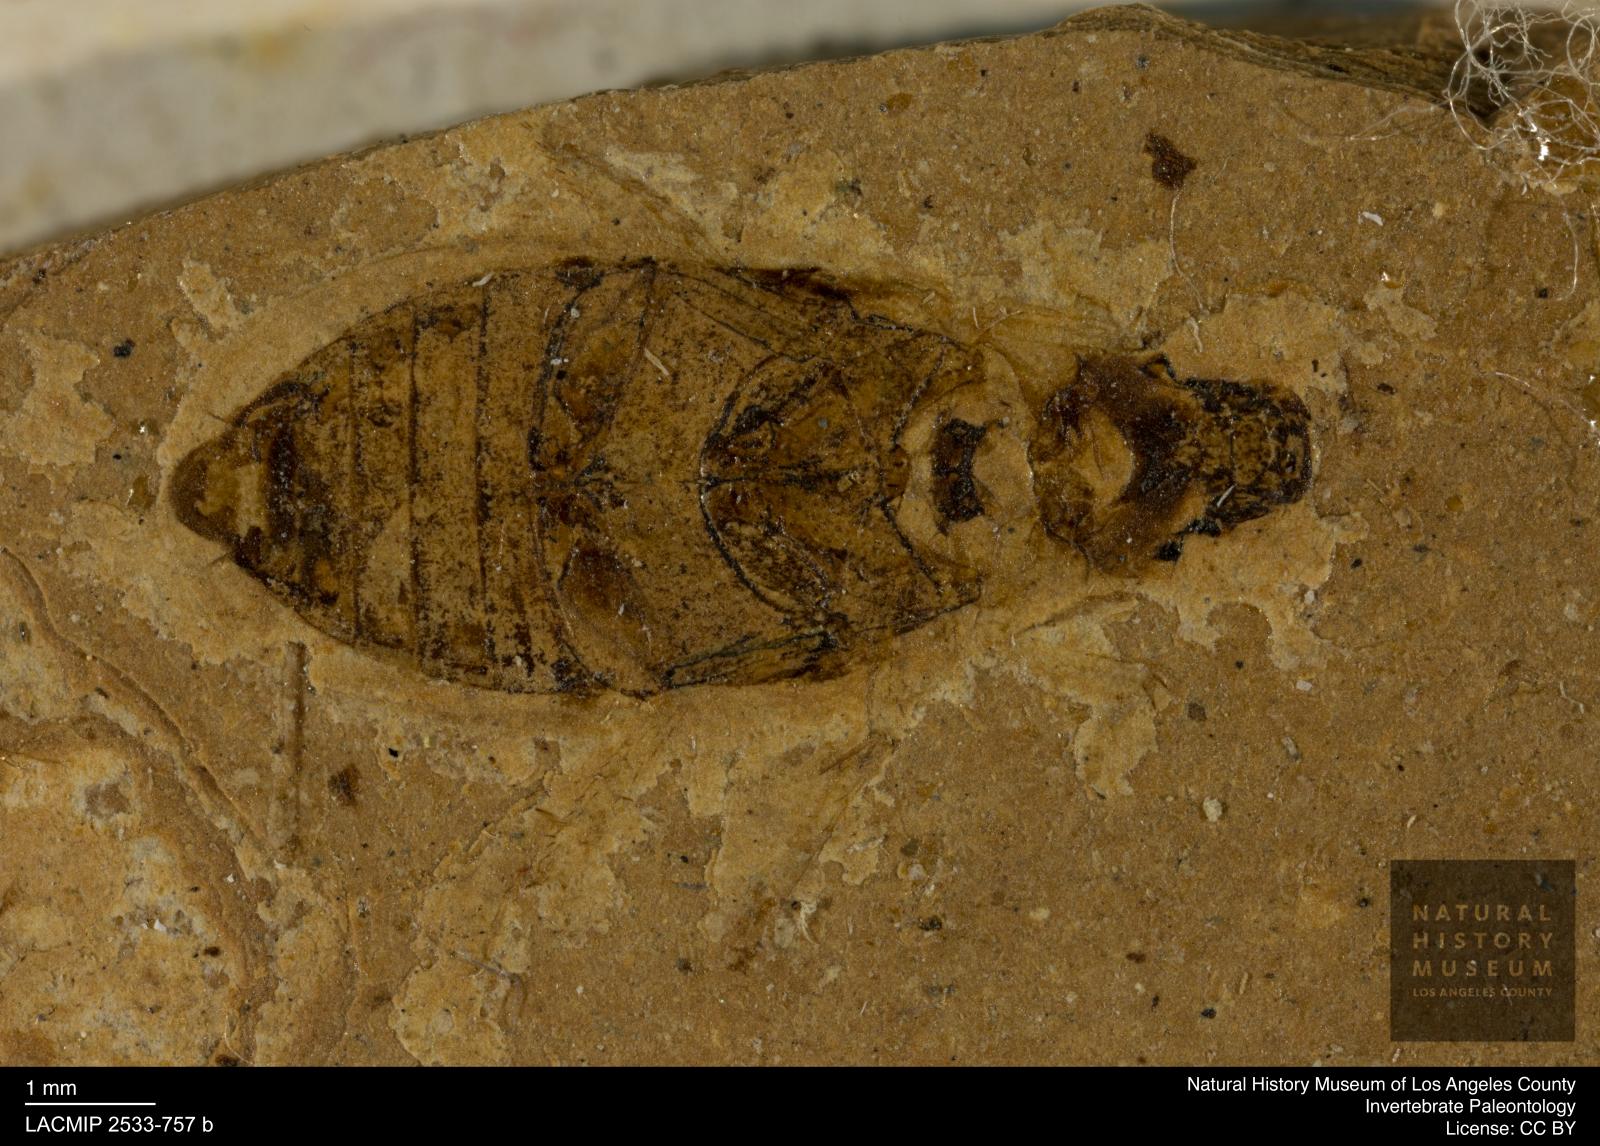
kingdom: Animalia
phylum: Arthropoda
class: Insecta
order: Coleoptera
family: Hydrophilidae
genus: Berosus
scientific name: Berosus morticinus
